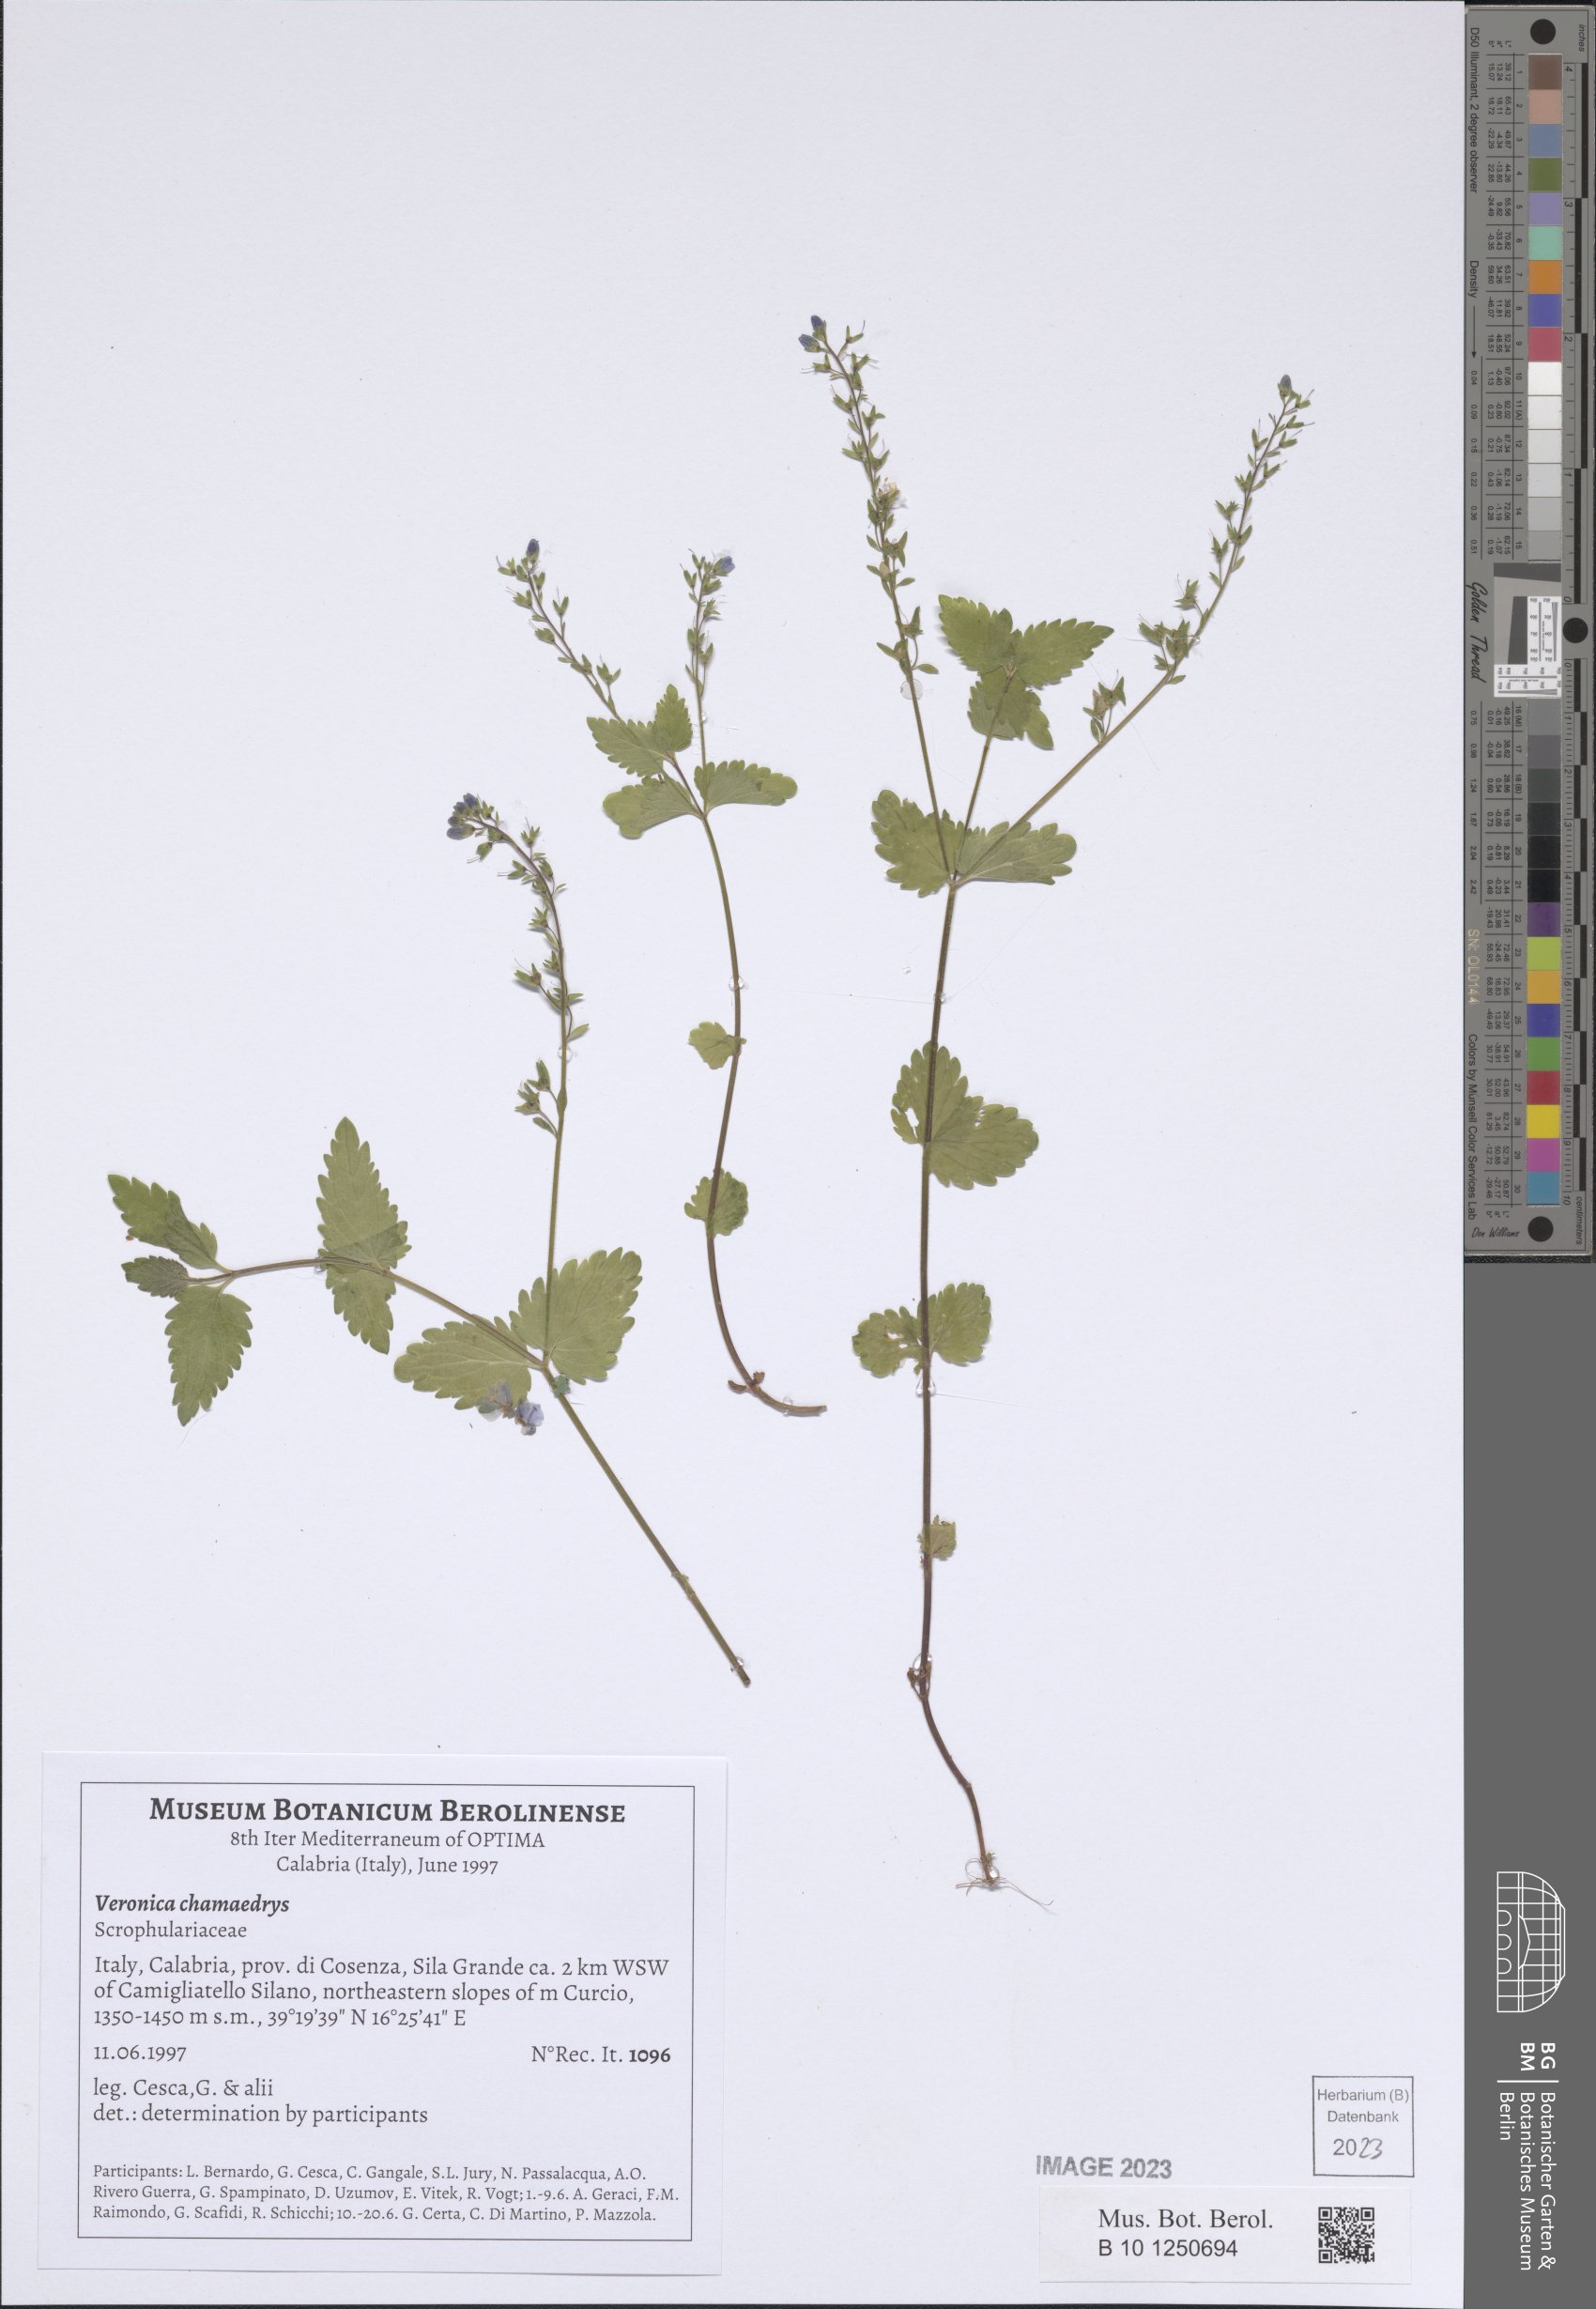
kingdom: Plantae
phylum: Tracheophyta
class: Magnoliopsida
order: Lamiales
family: Plantaginaceae
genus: Veronica
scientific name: Veronica chamaedrys
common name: Germander speedwell
